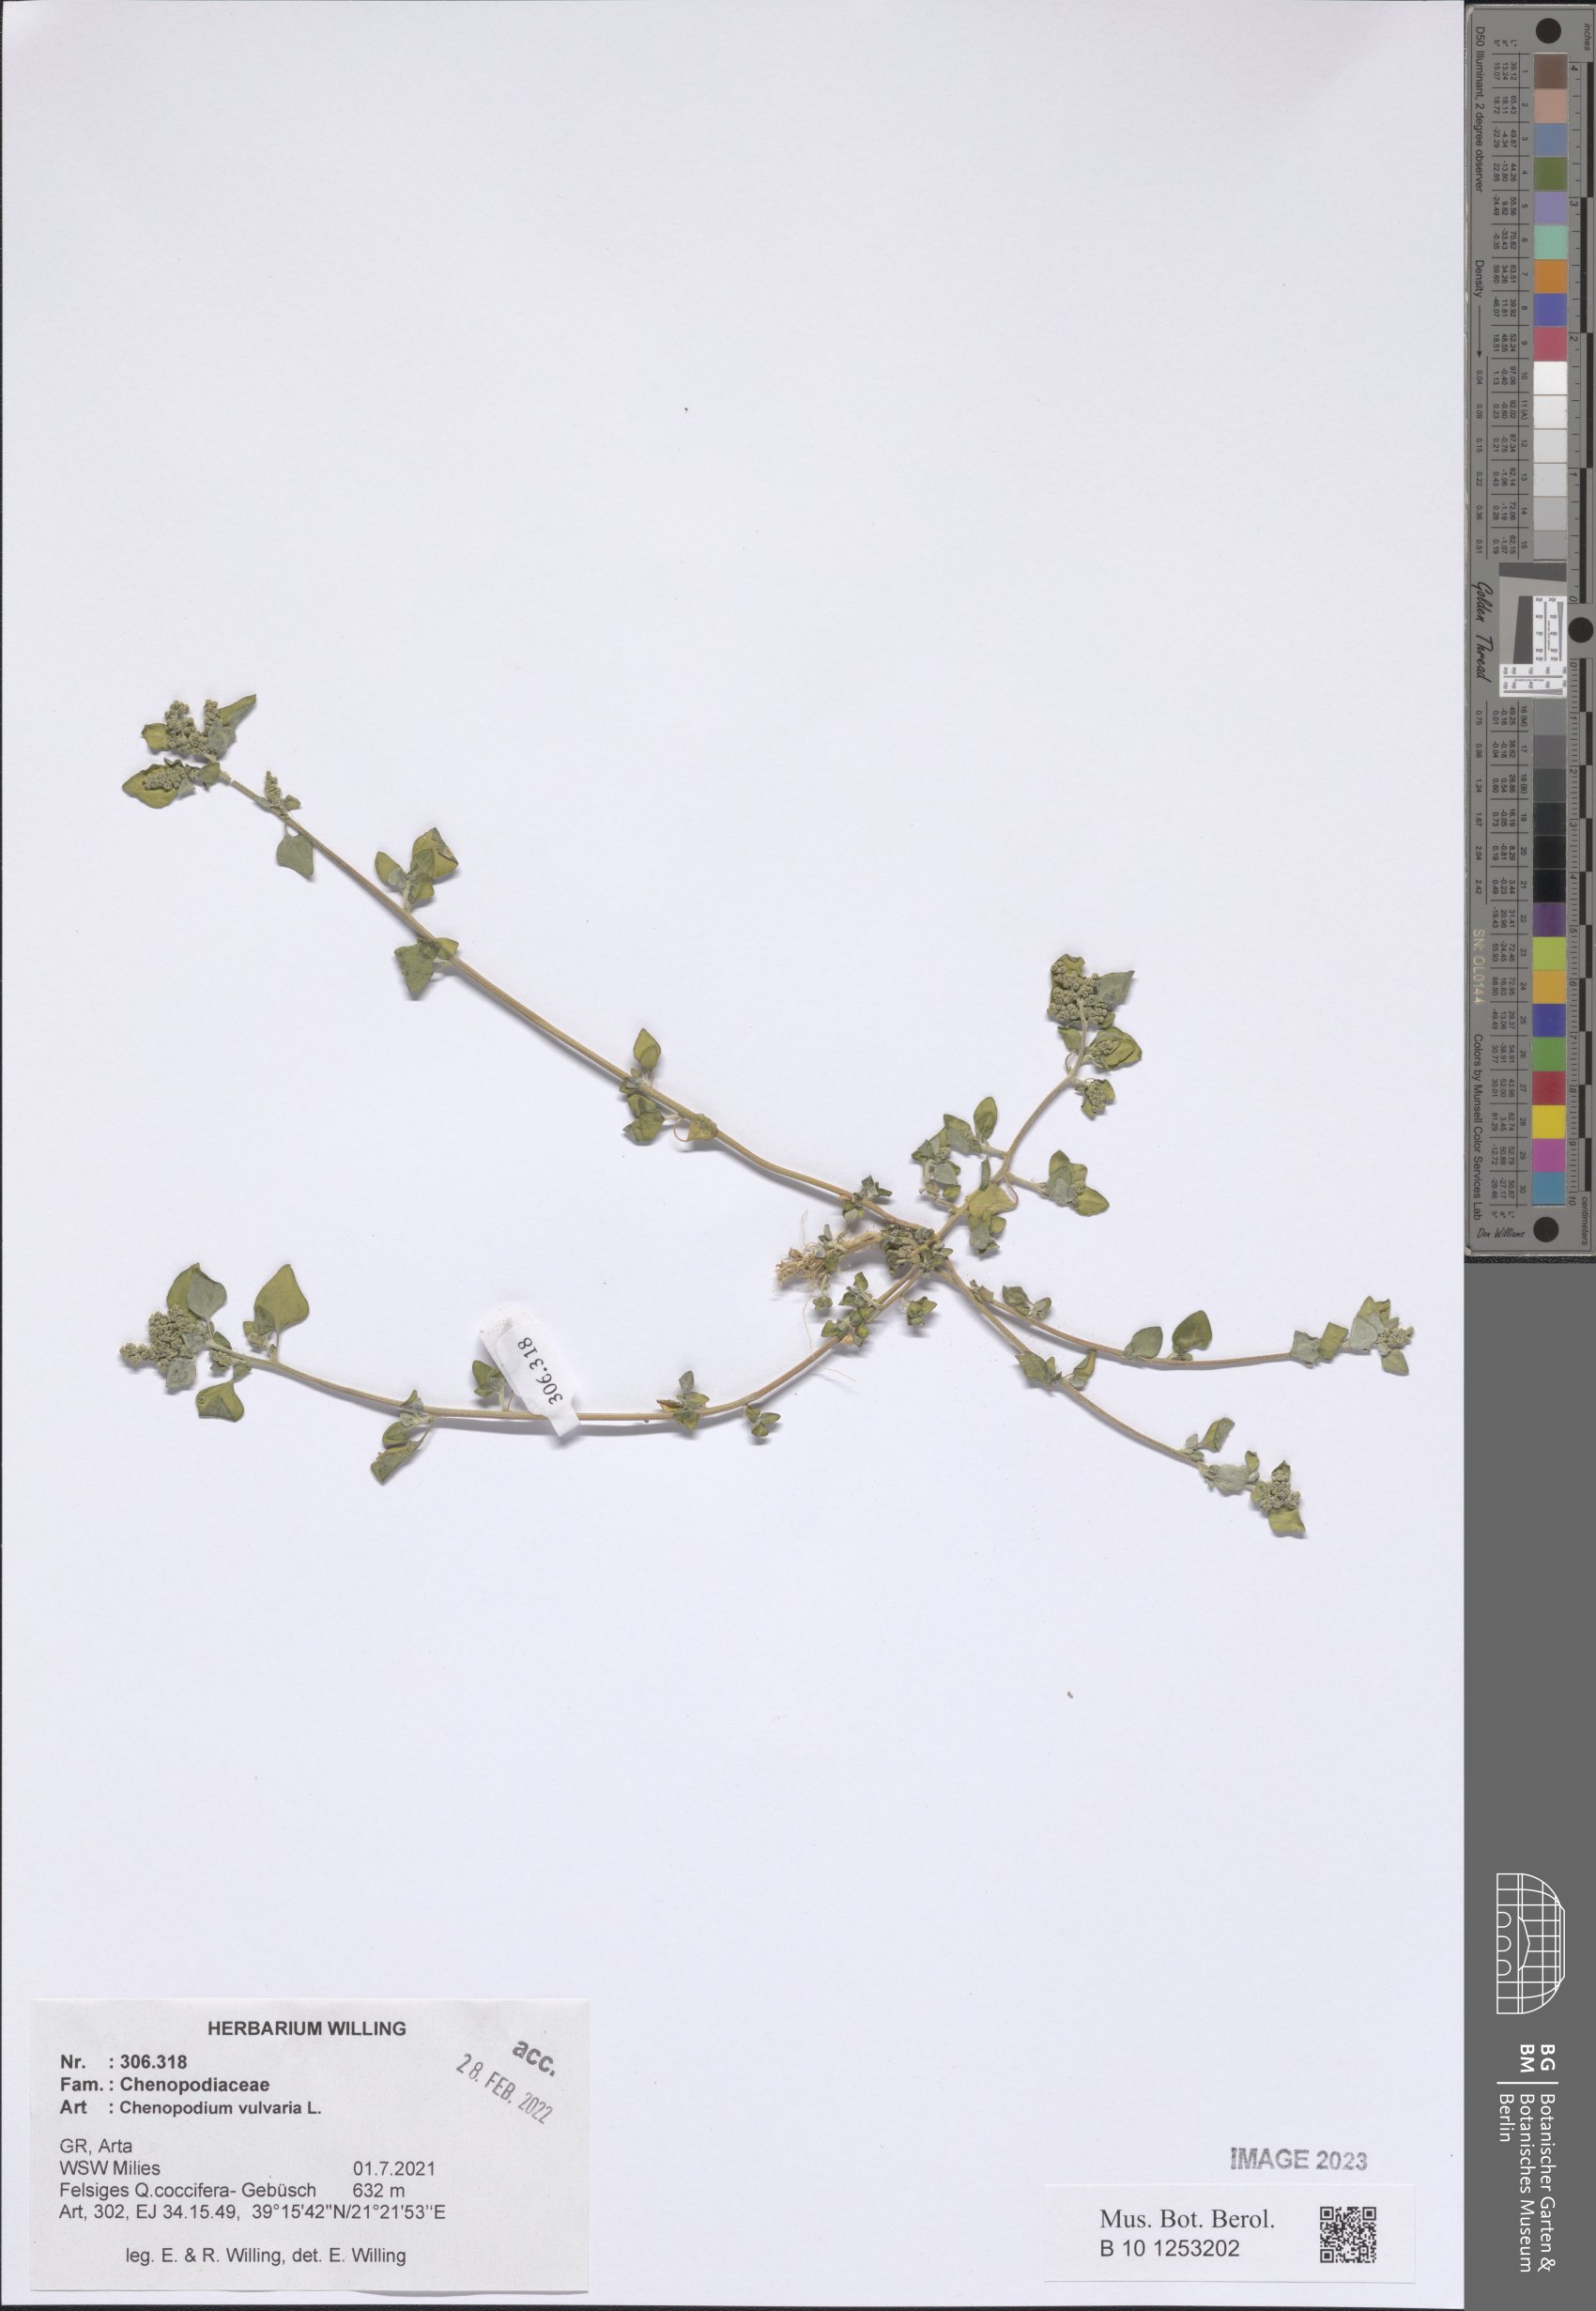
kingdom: Plantae
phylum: Tracheophyta
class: Magnoliopsida
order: Caryophyllales
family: Amaranthaceae
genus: Chenopodium
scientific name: Chenopodium vulvaria
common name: Stinking goosefoot
